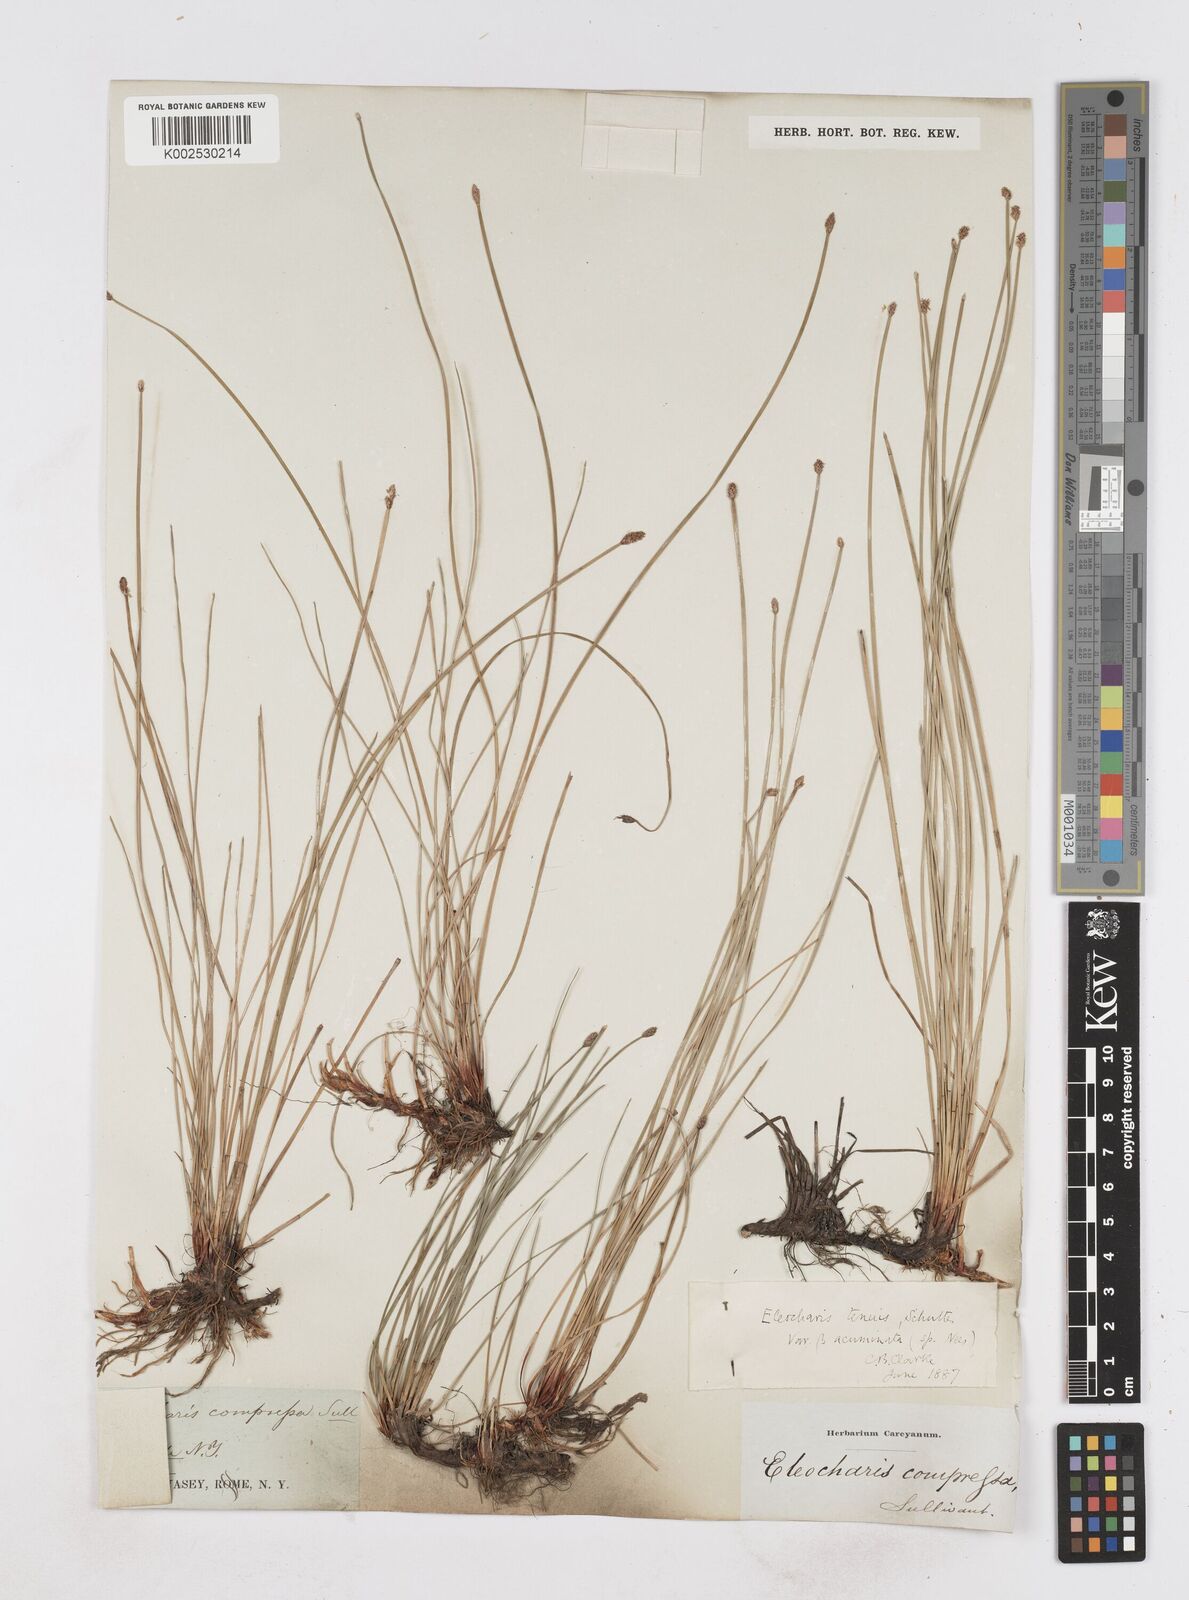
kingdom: Plantae
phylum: Tracheophyta
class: Liliopsida
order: Poales
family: Cyperaceae
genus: Eleocharis
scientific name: Eleocharis tenuis
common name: Dog's hair
